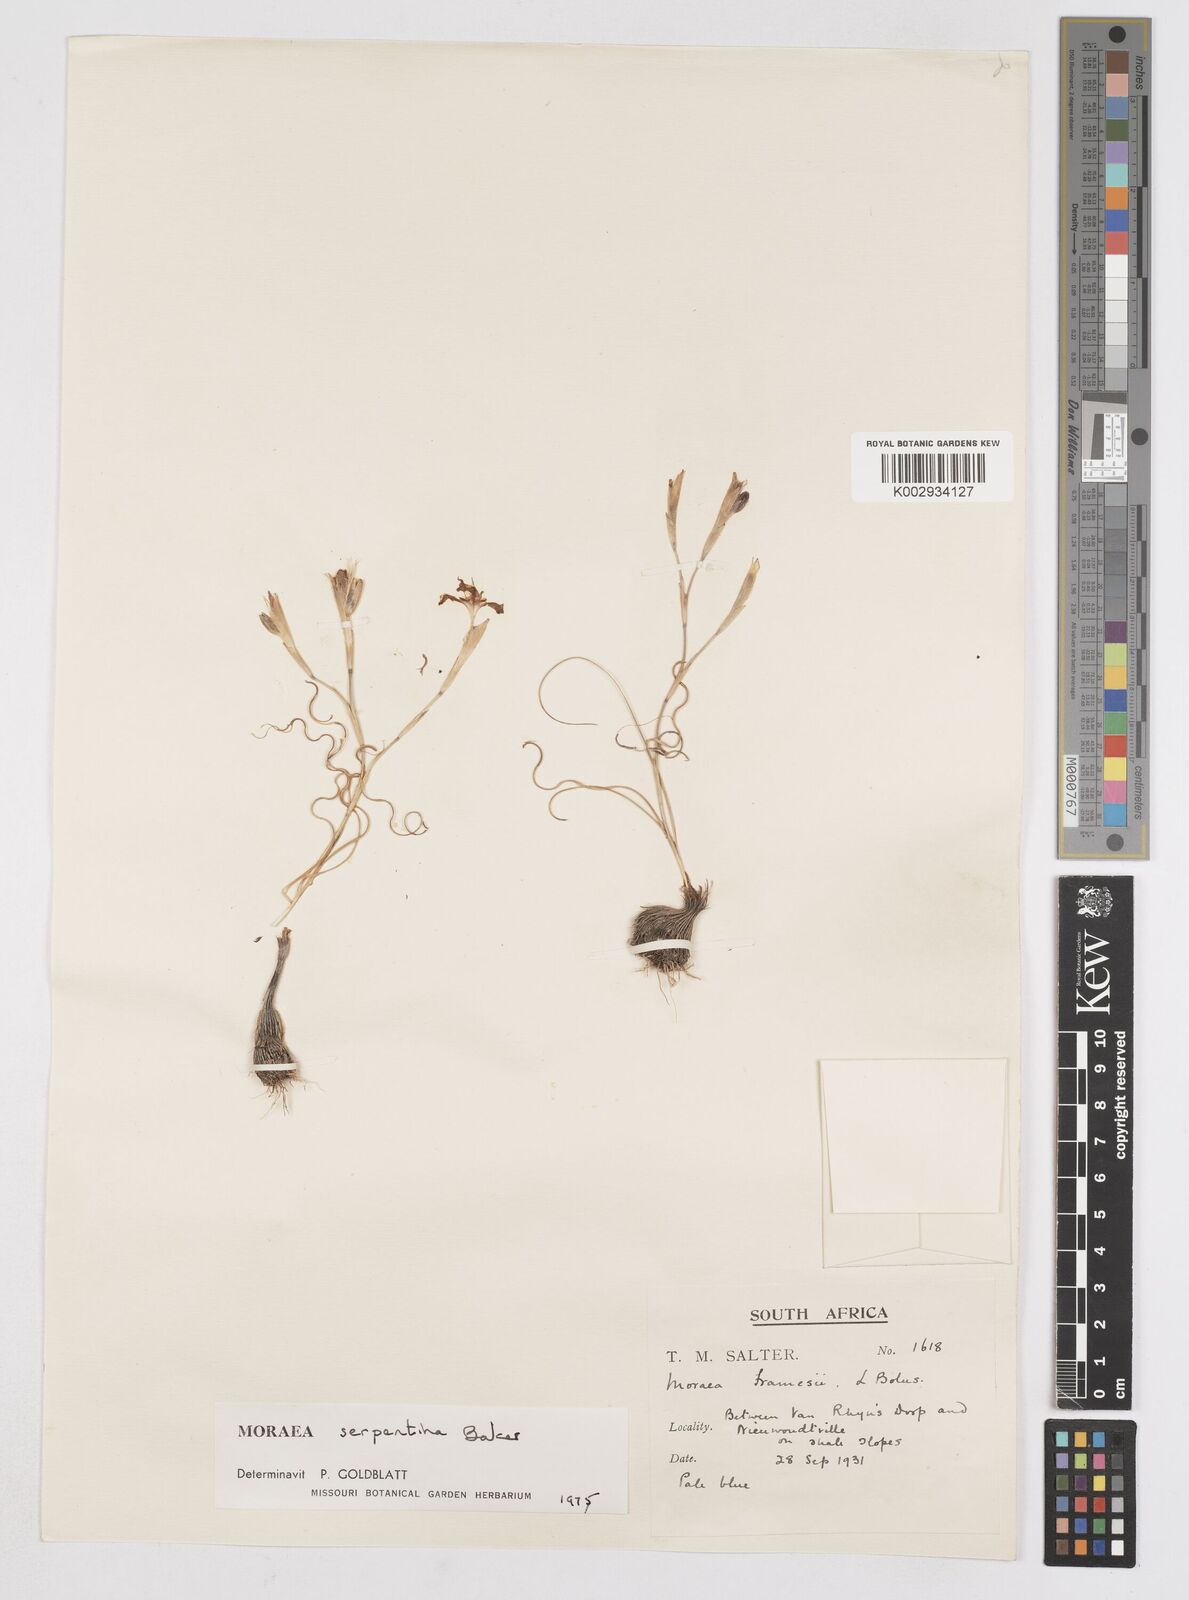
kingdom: Plantae
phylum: Tracheophyta
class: Liliopsida
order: Asparagales
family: Iridaceae
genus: Moraea
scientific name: Moraea serpentina
